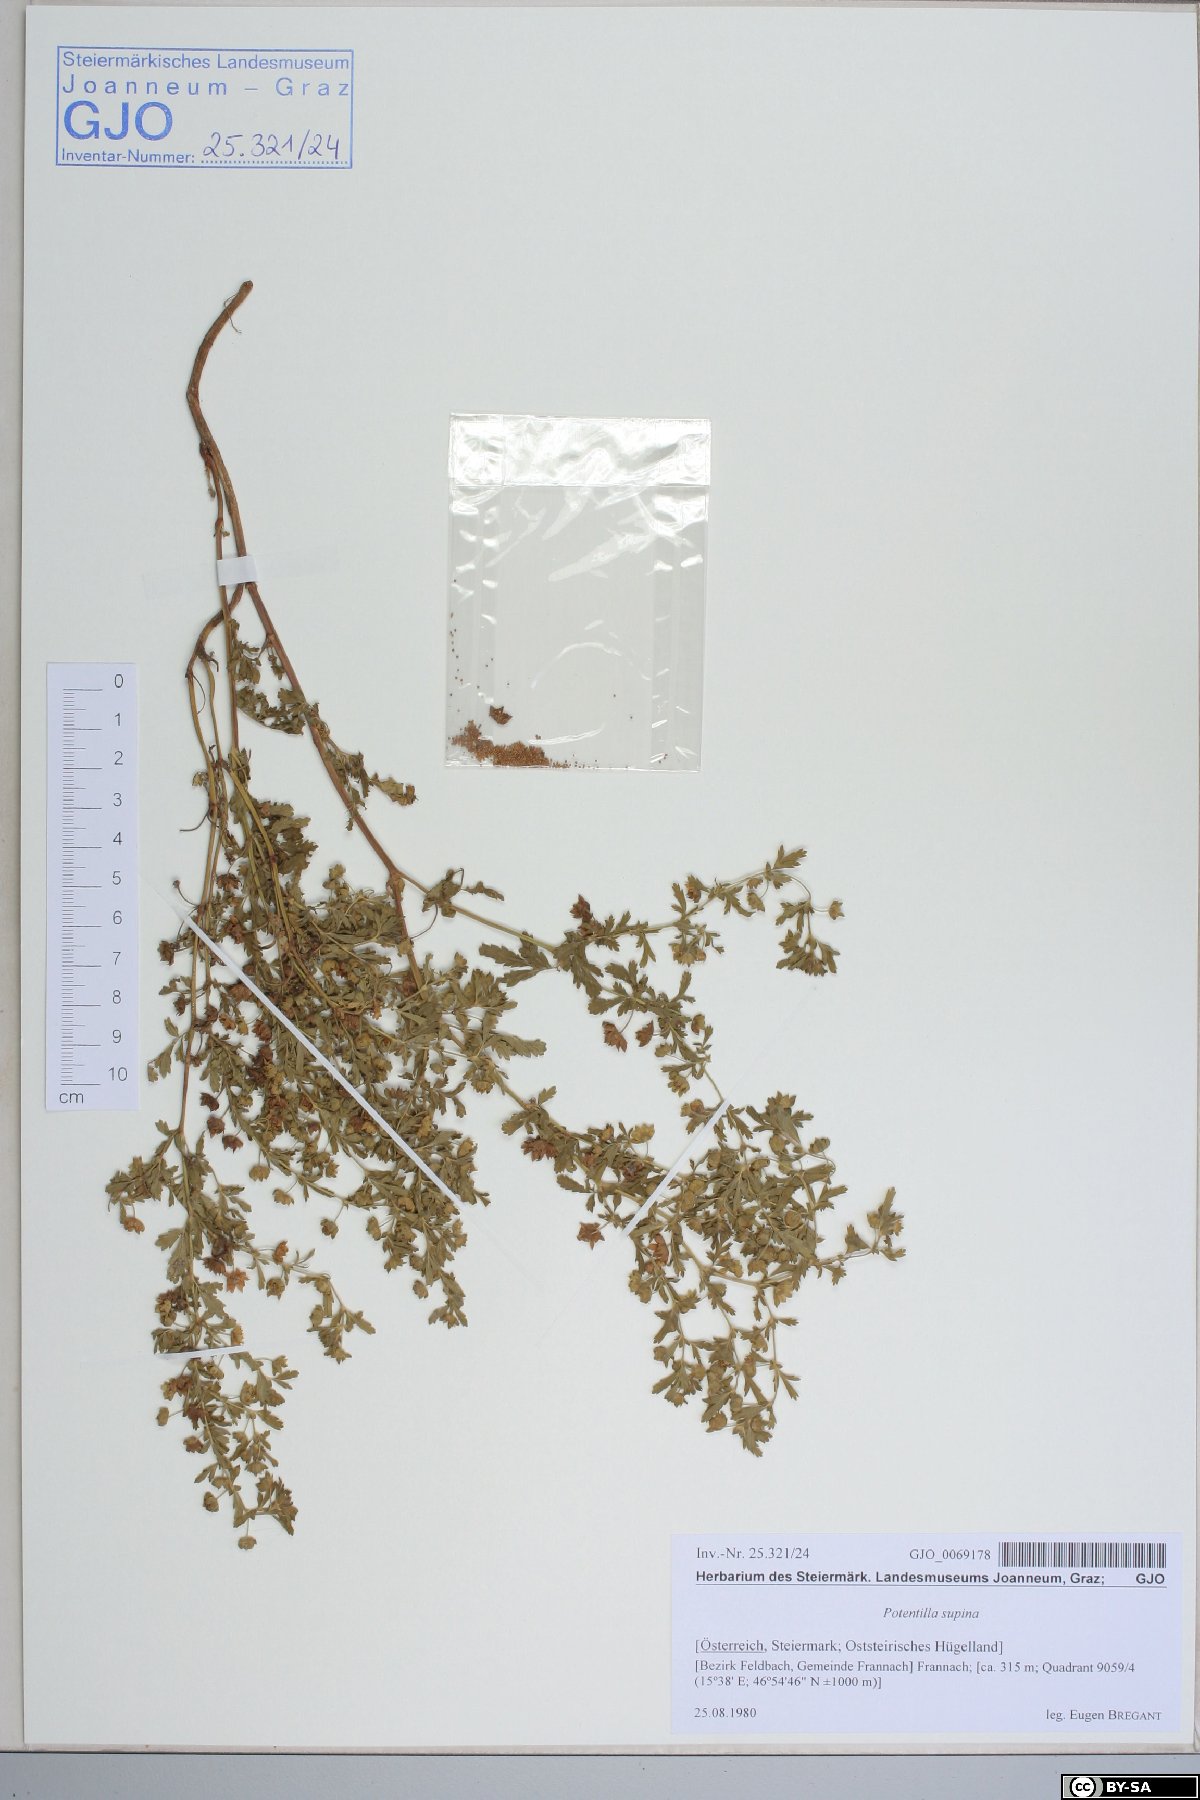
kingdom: Plantae
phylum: Tracheophyta
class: Magnoliopsida
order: Rosales
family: Rosaceae
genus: Potentilla
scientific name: Potentilla supina
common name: Prostrate cinquefoil
